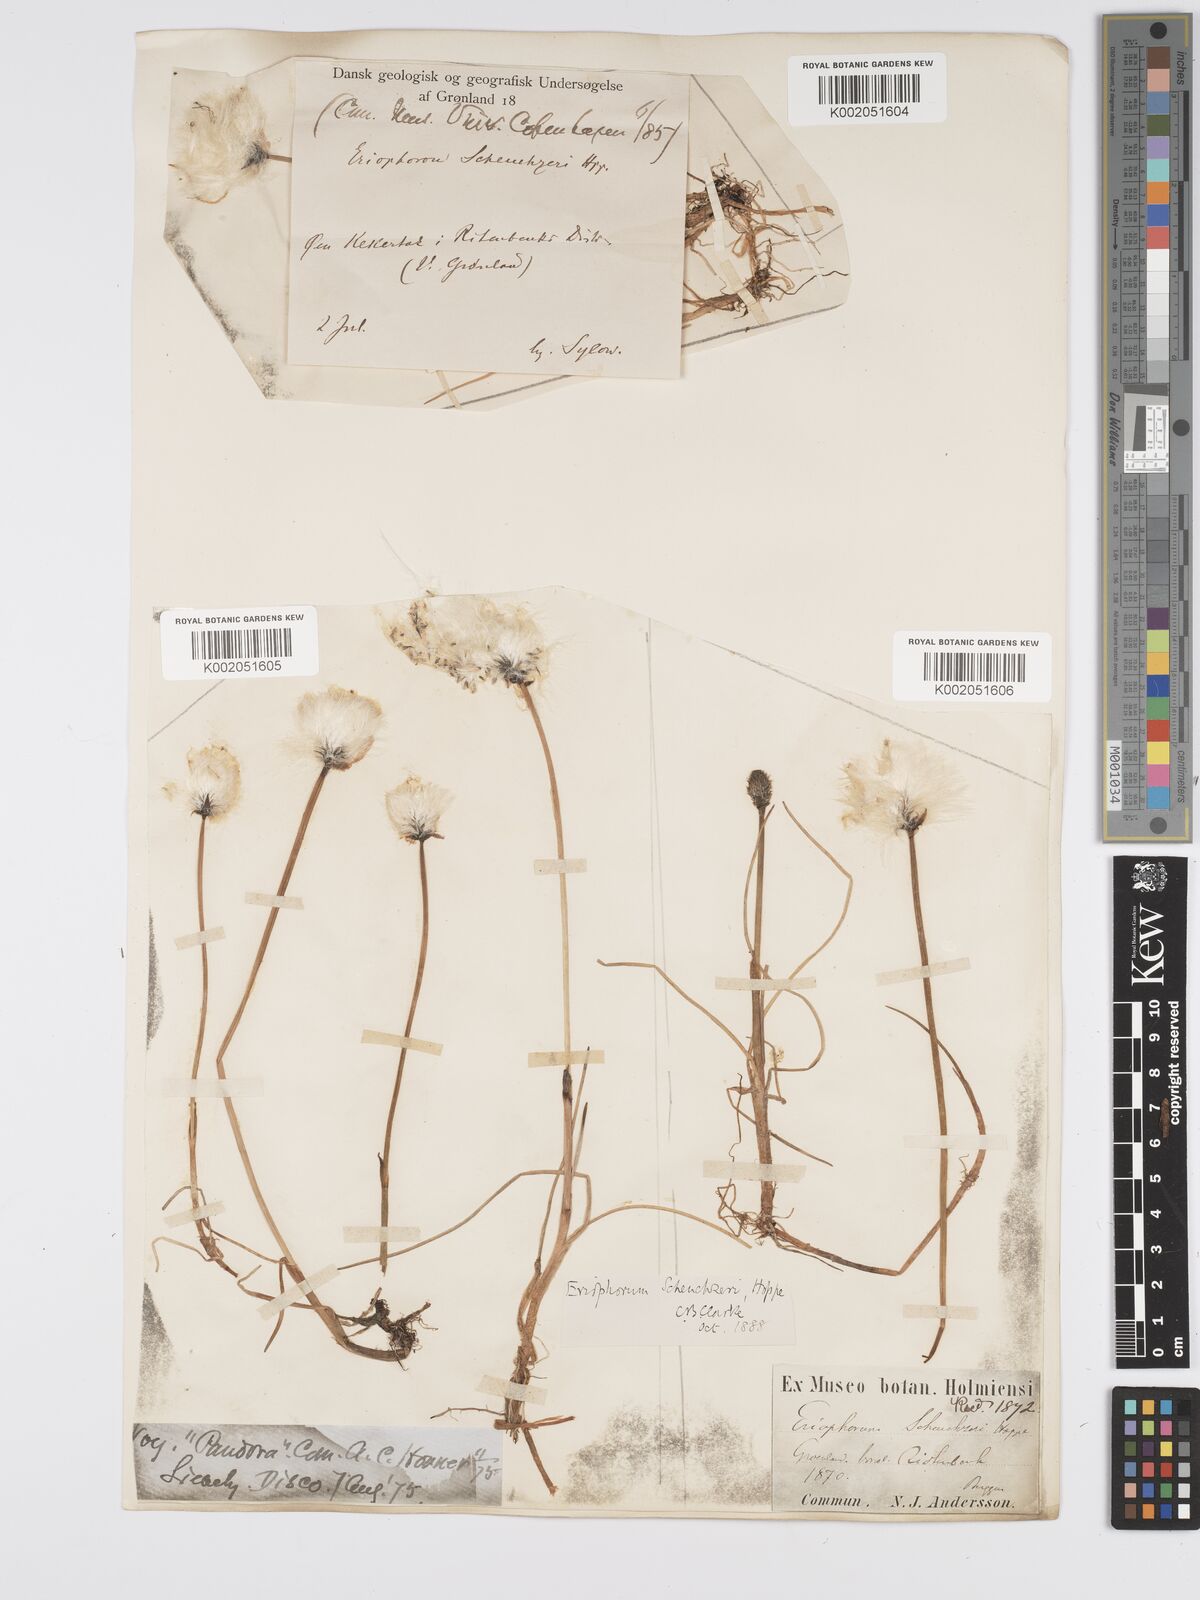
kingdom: Plantae
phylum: Tracheophyta
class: Liliopsida
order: Poales
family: Cyperaceae
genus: Eriophorum
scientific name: Eriophorum scheuchzeri
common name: Scheuchzer's cottongrass
